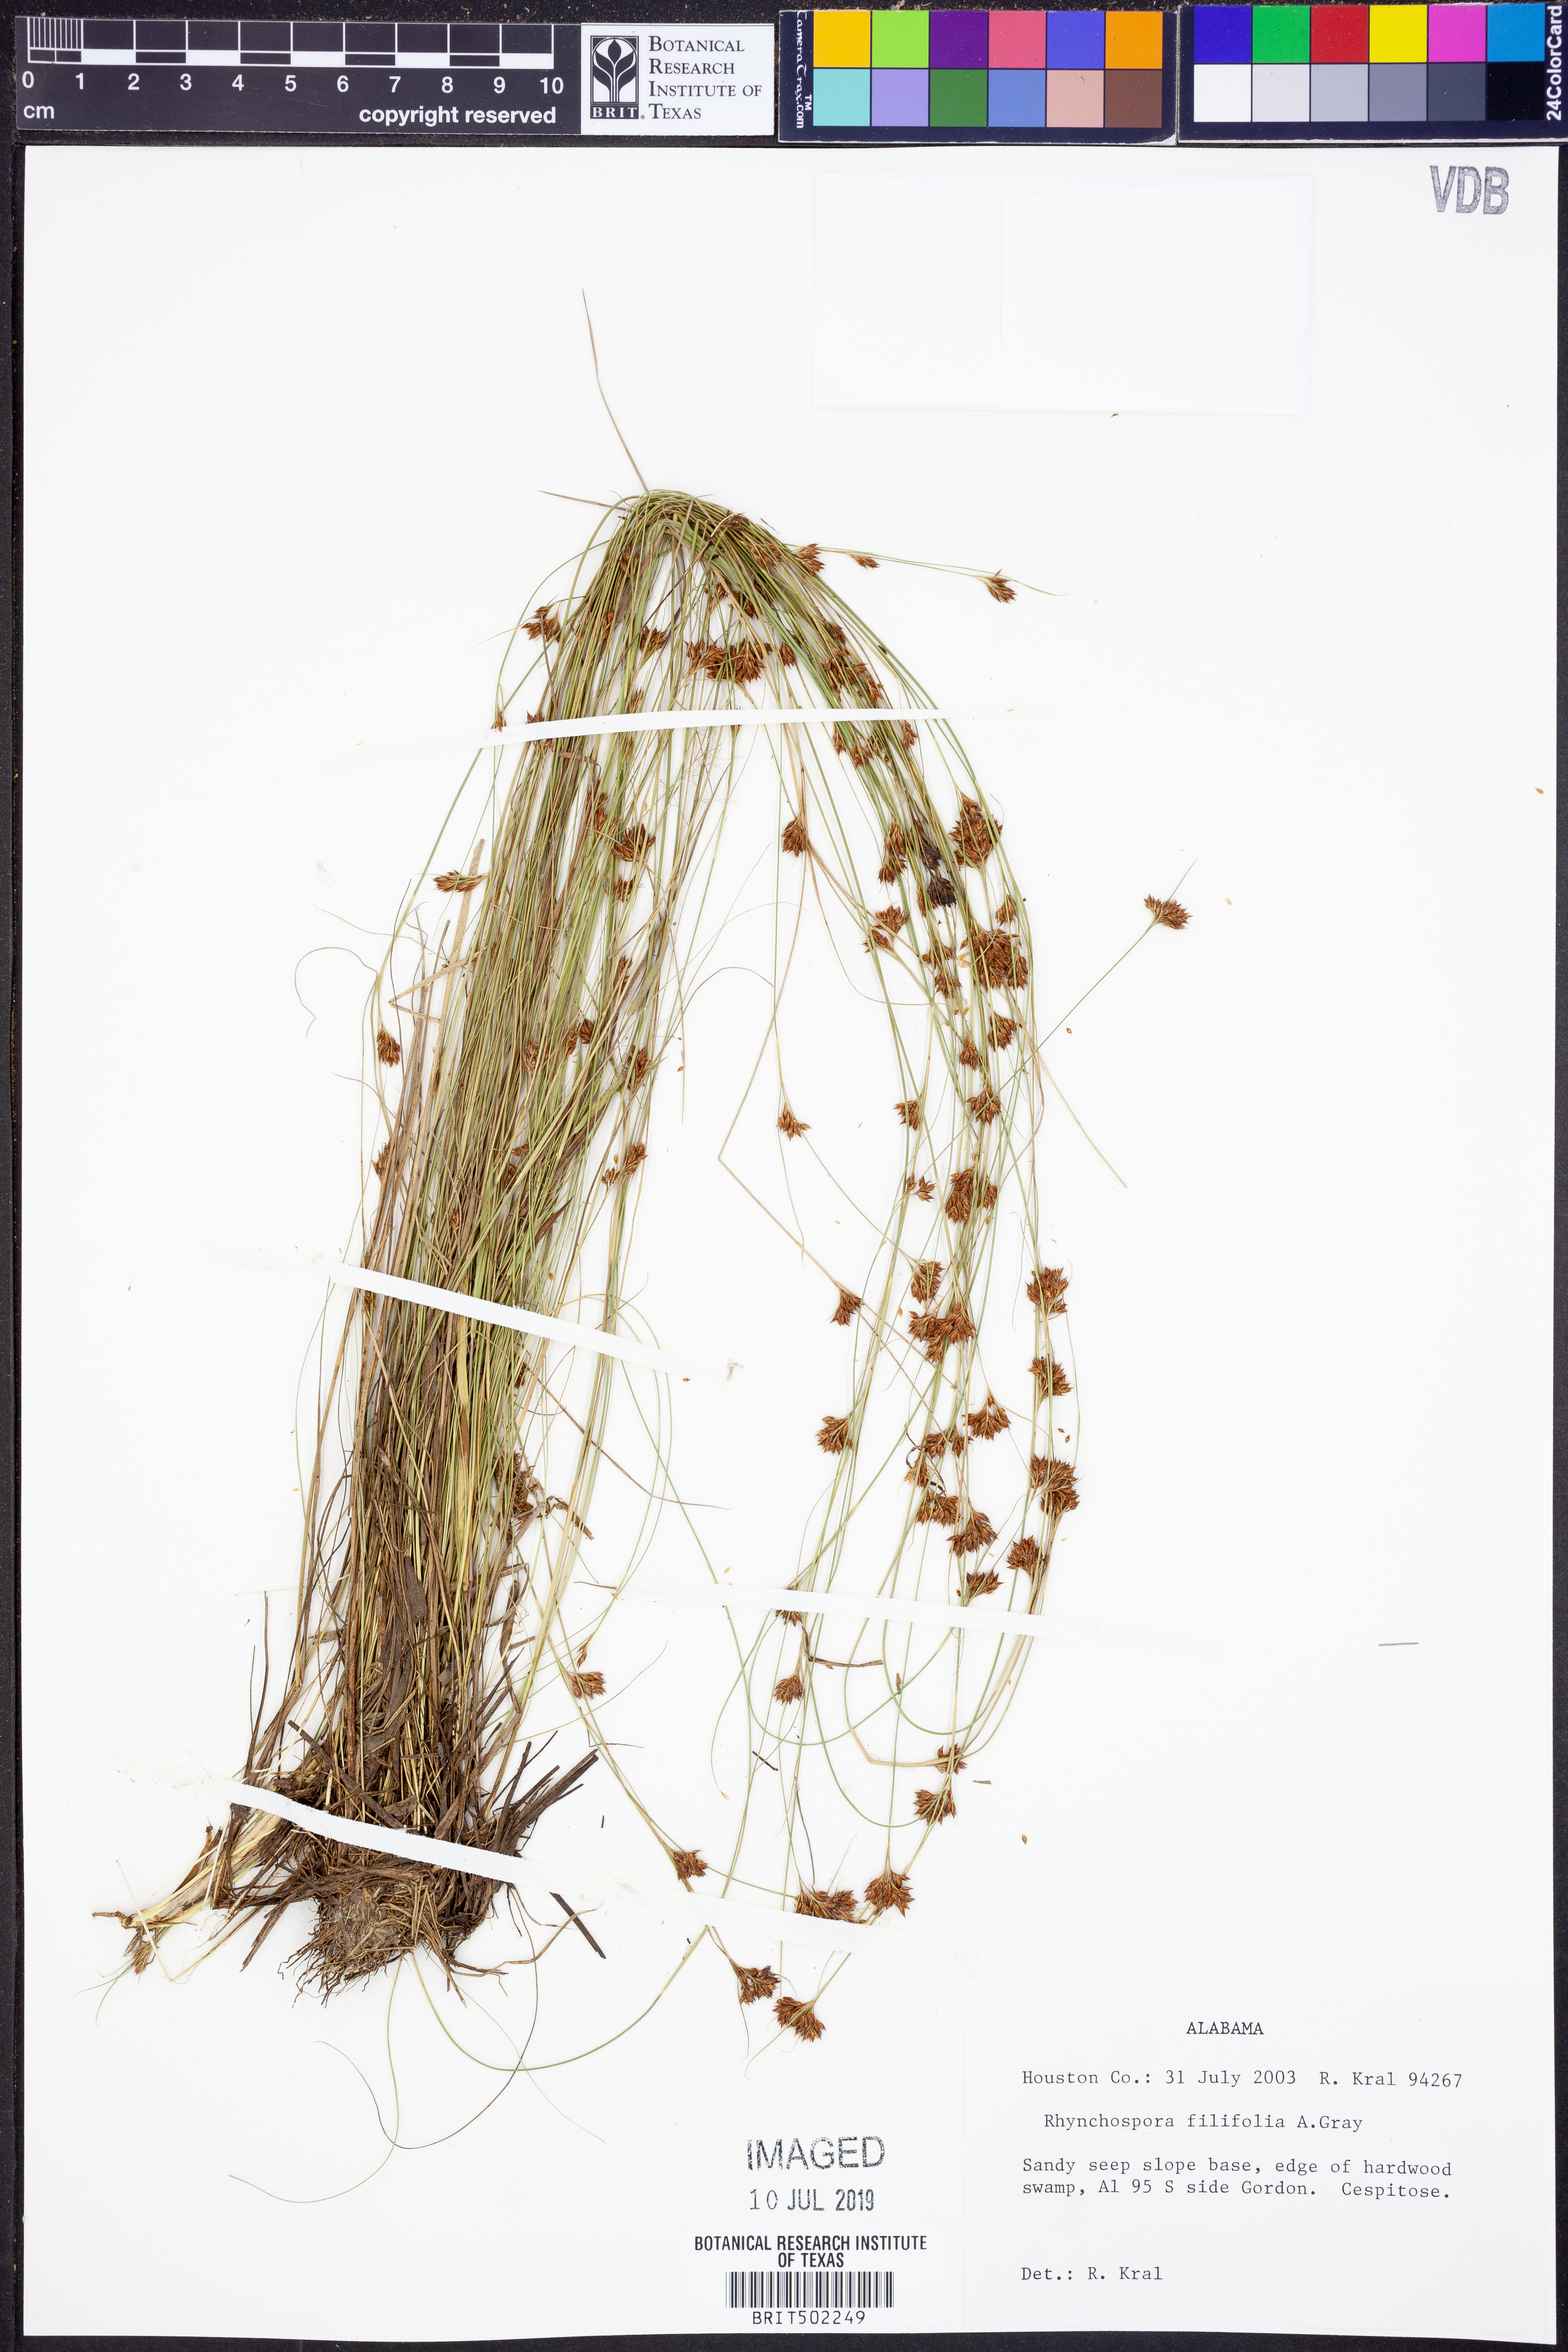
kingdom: Plantae
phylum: Tracheophyta
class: Liliopsida
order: Poales
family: Cyperaceae
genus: Rhynchospora
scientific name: Rhynchospora filifolia
